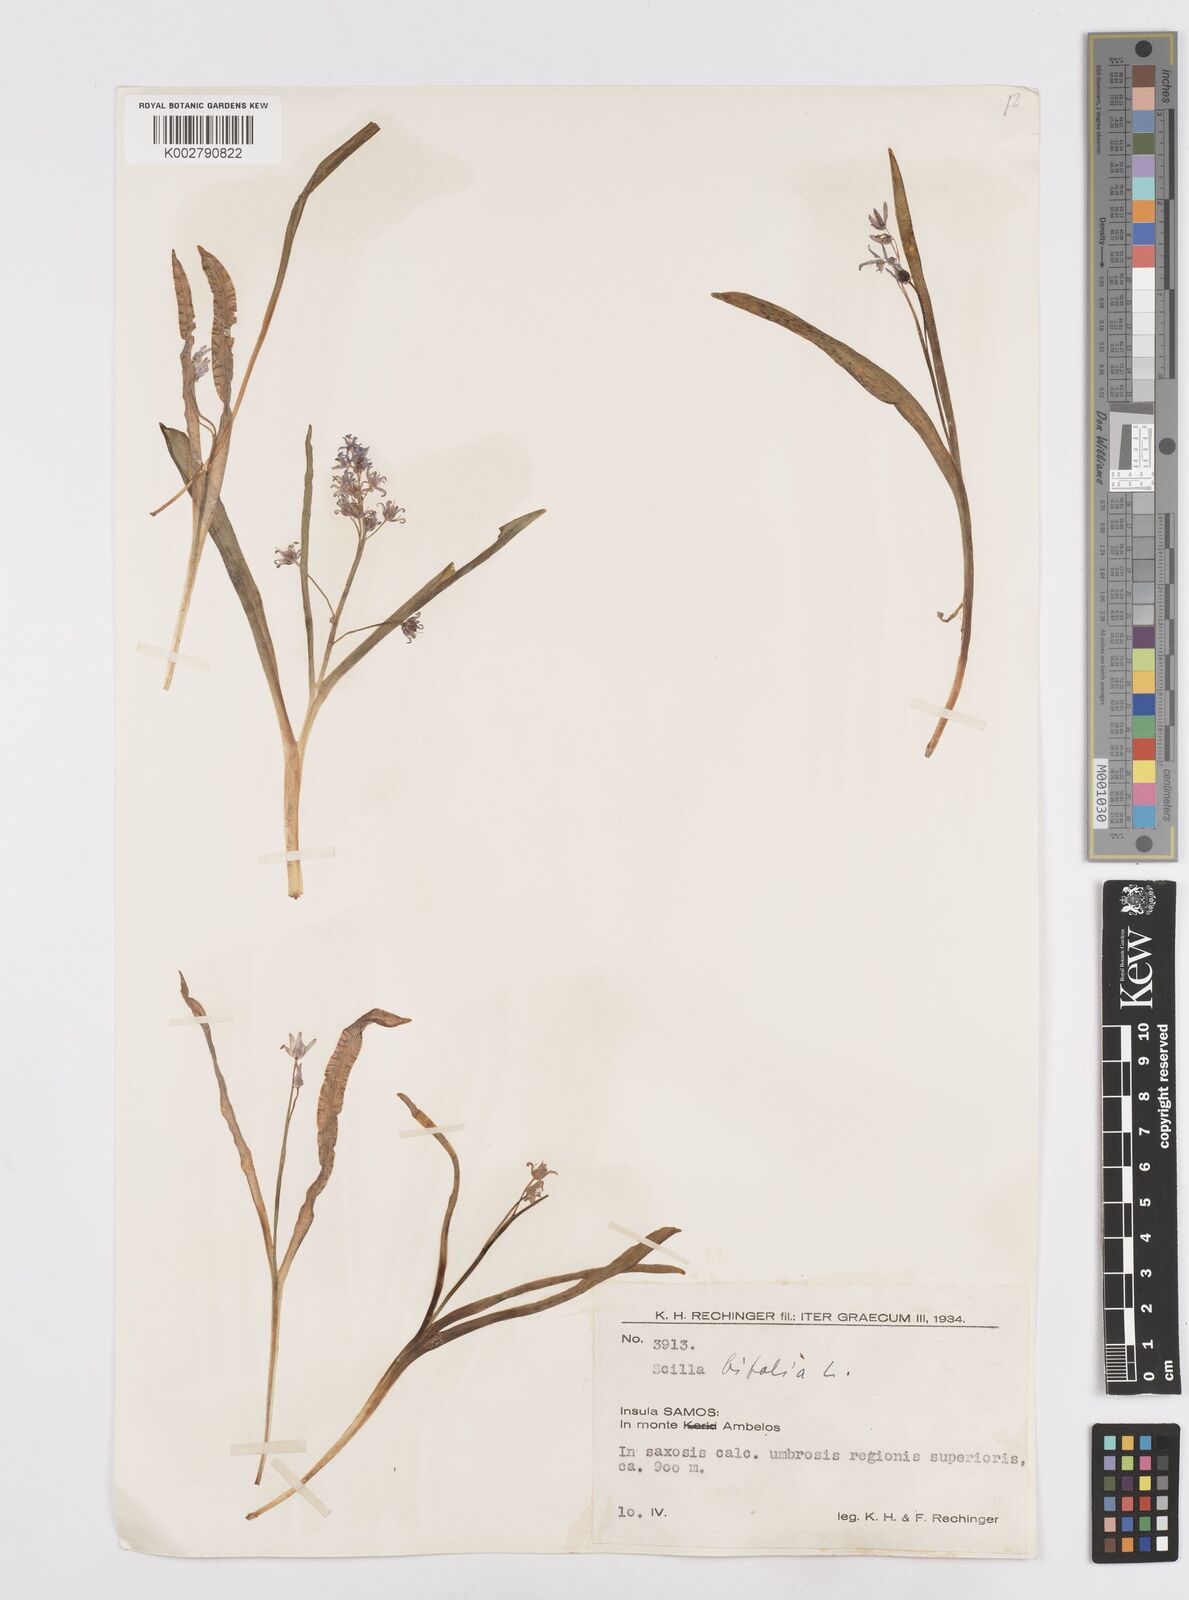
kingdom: Plantae
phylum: Tracheophyta
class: Liliopsida
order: Asparagales
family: Asparagaceae
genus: Scilla
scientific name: Scilla bifolia
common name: Alpine squill
